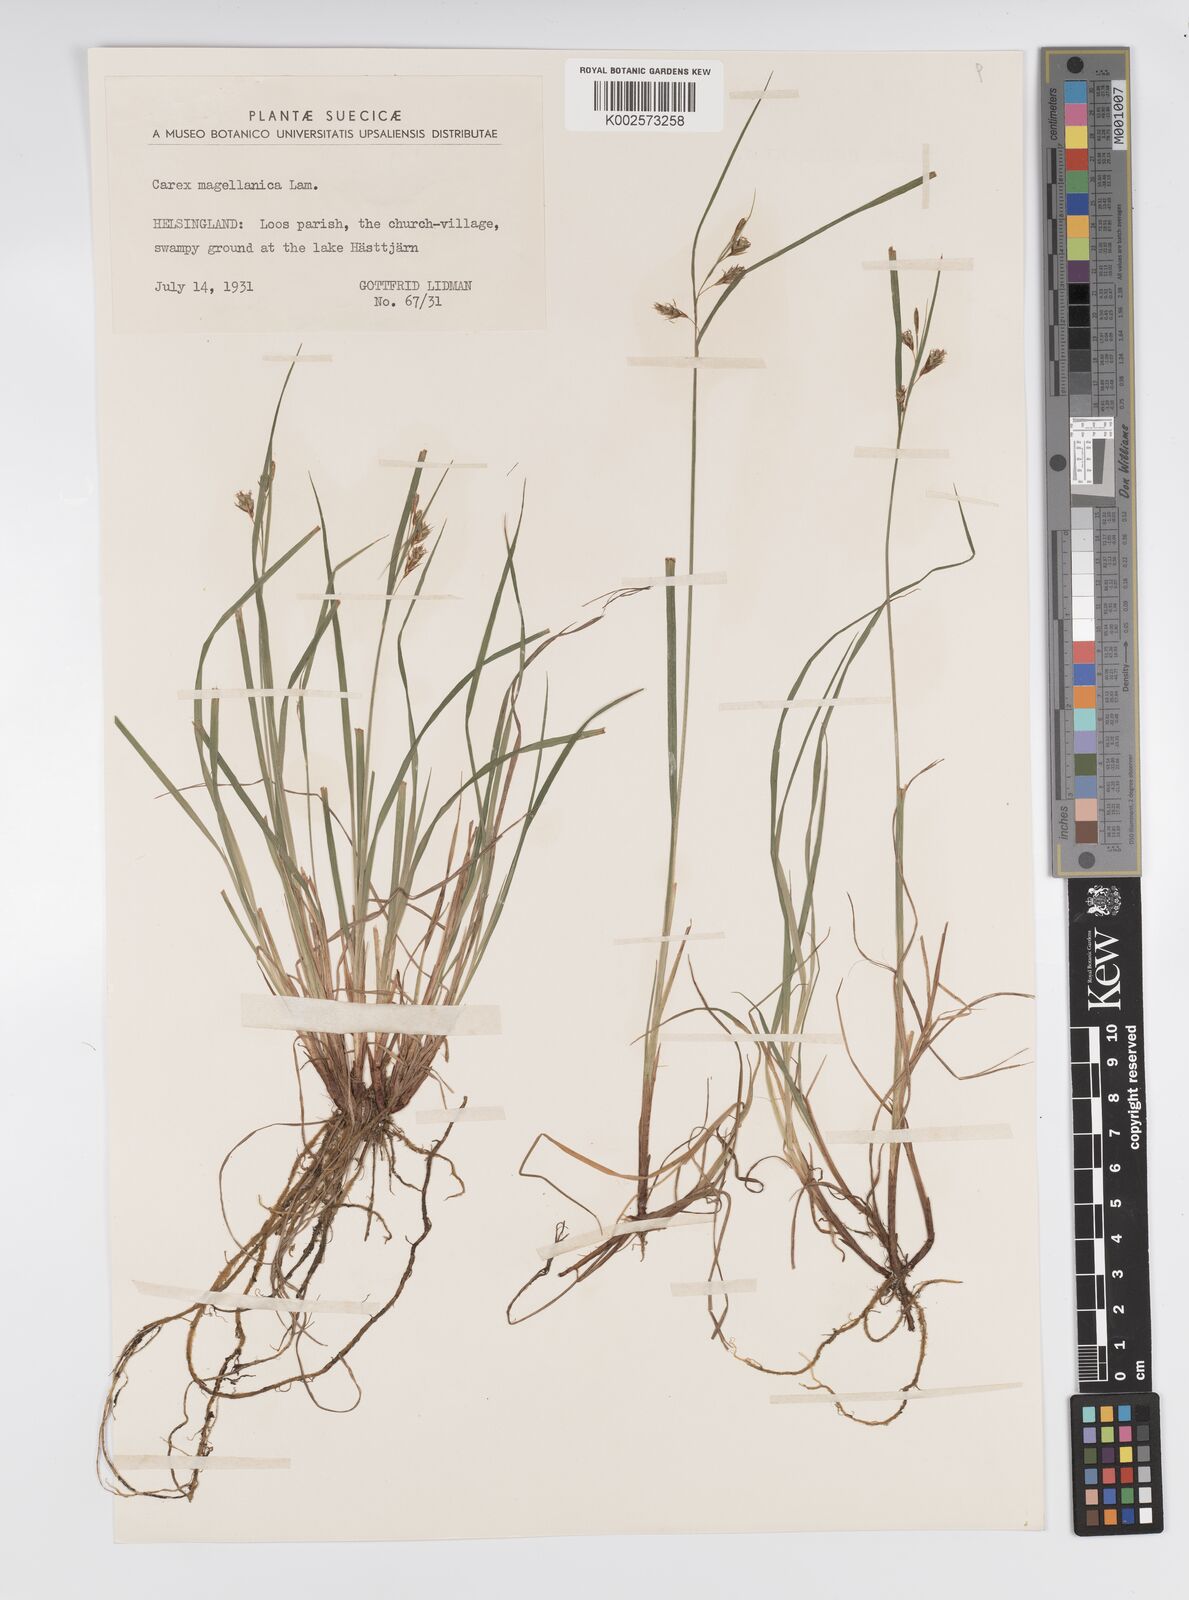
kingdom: Plantae
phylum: Tracheophyta
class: Liliopsida
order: Poales
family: Cyperaceae
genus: Carex
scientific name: Carex magellanica
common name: Bog sedge
